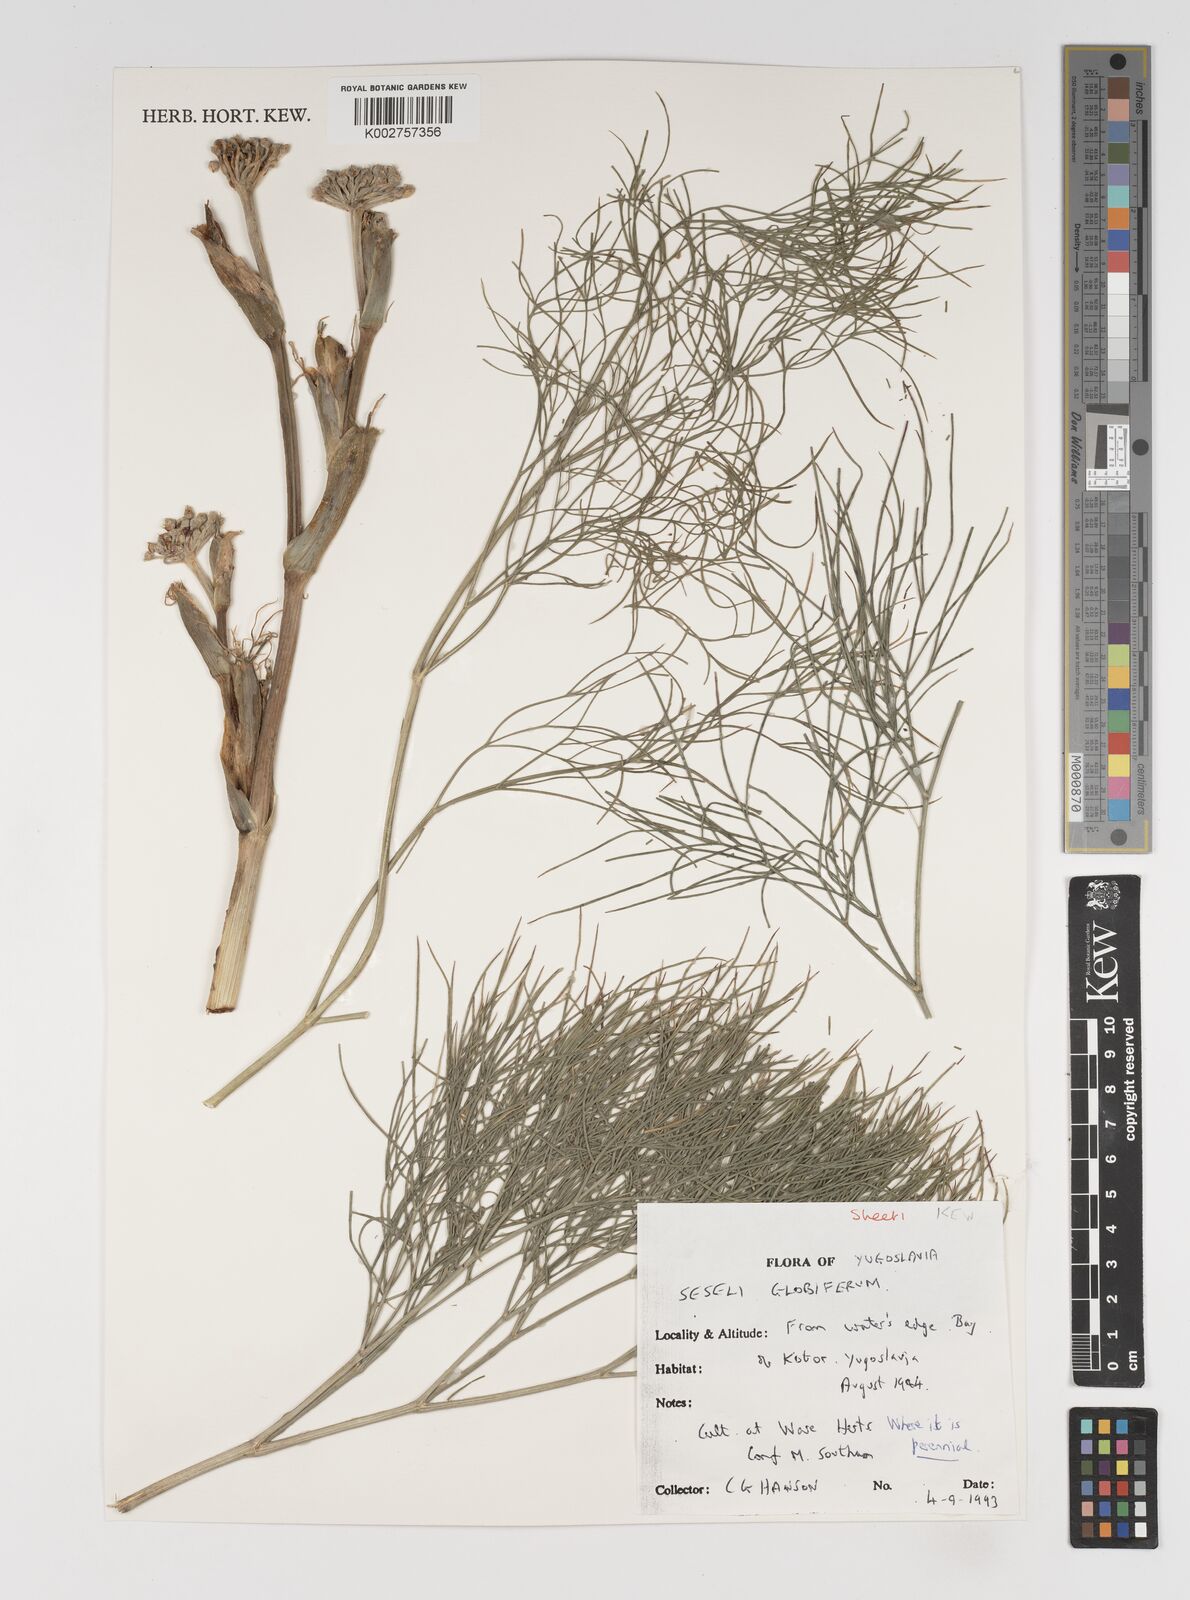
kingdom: Plantae
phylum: Tracheophyta
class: Magnoliopsida
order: Apiales
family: Apiaceae
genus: Seseli
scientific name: Seseli globiferum
